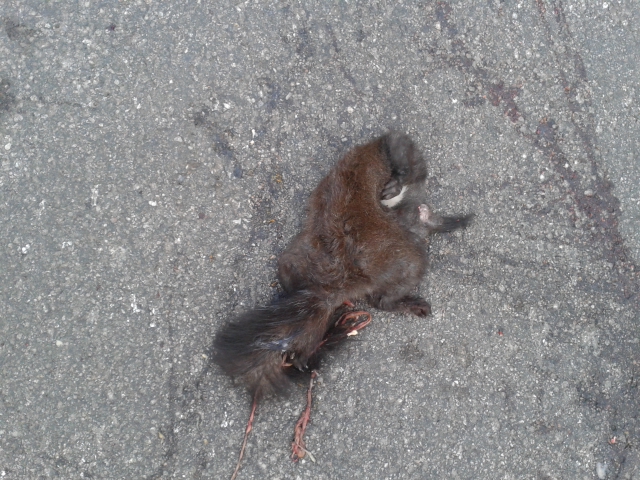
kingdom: Animalia
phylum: Chordata
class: Mammalia
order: Rodentia
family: Sciuridae
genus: Sciurus
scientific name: Sciurus vulgaris
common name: Eurasian red squirrel
